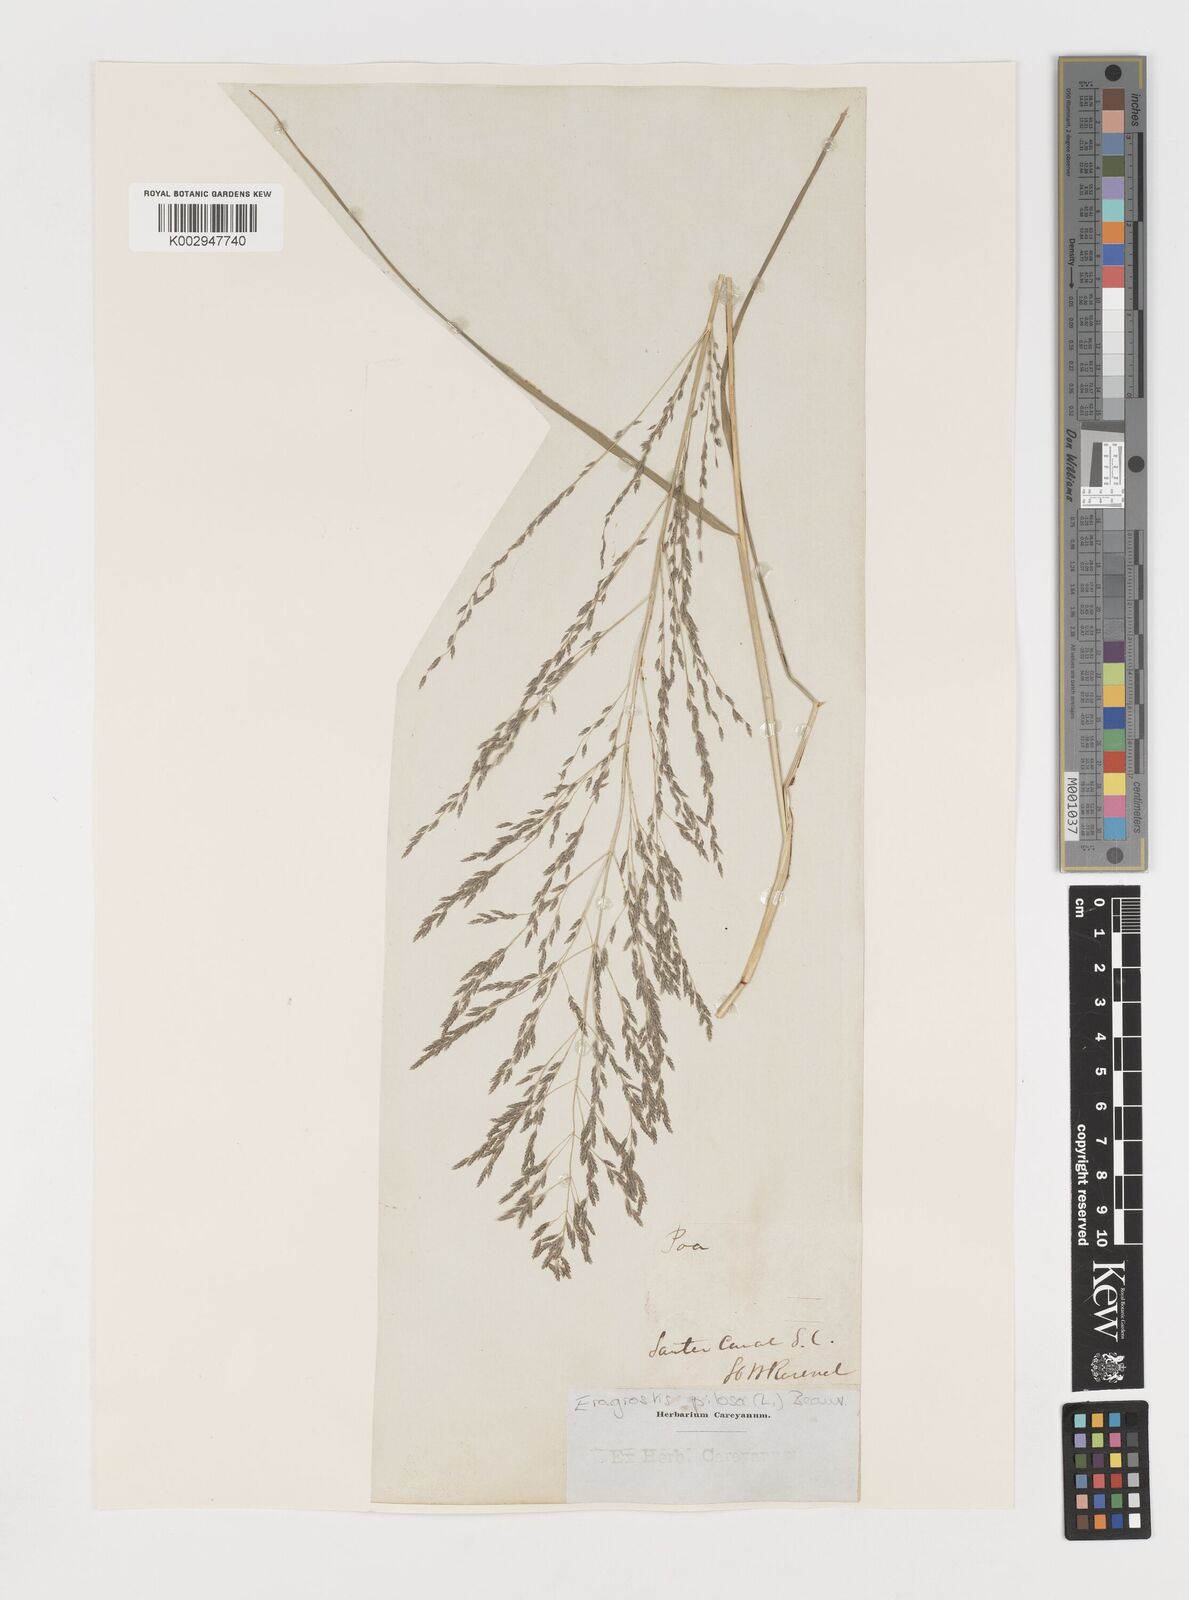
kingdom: Plantae
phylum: Tracheophyta
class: Liliopsida
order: Poales
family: Poaceae
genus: Eragrostis
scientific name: Eragrostis pilosa
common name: Indian lovegrass
